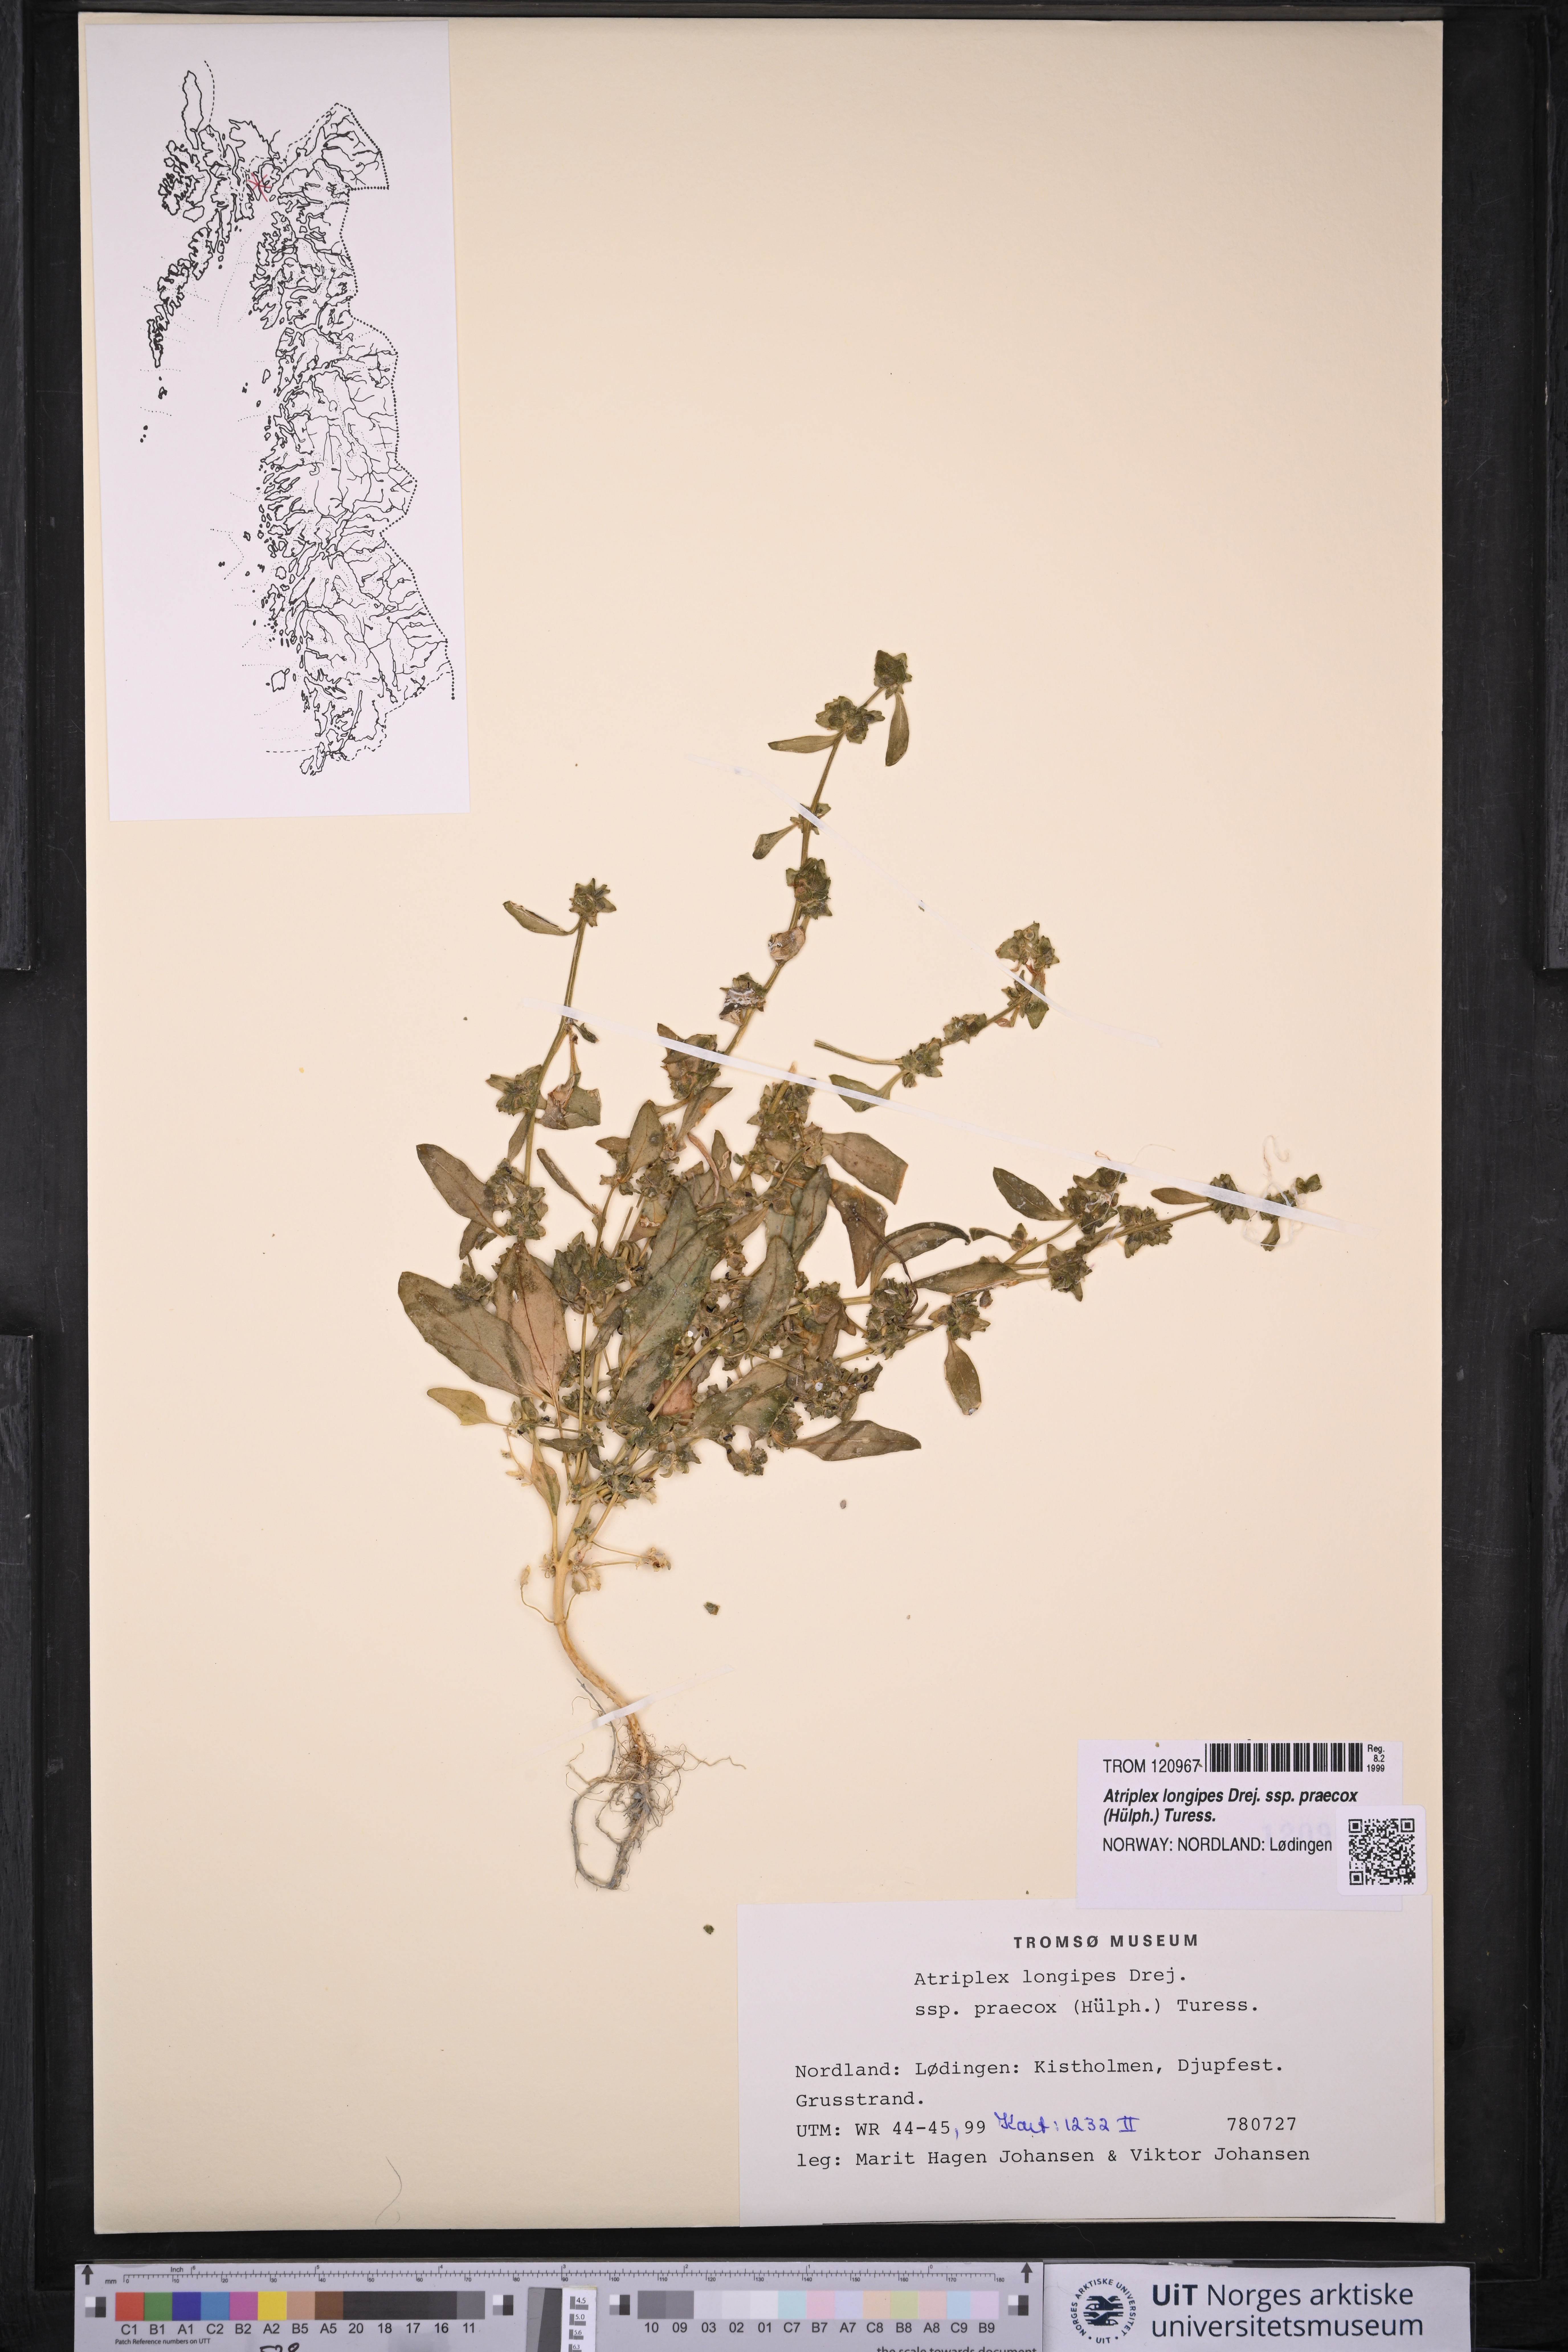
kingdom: Plantae
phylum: Tracheophyta
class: Magnoliopsida
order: Caryophyllales
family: Amaranthaceae
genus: Atriplex
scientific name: Atriplex praecox
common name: Early orache
